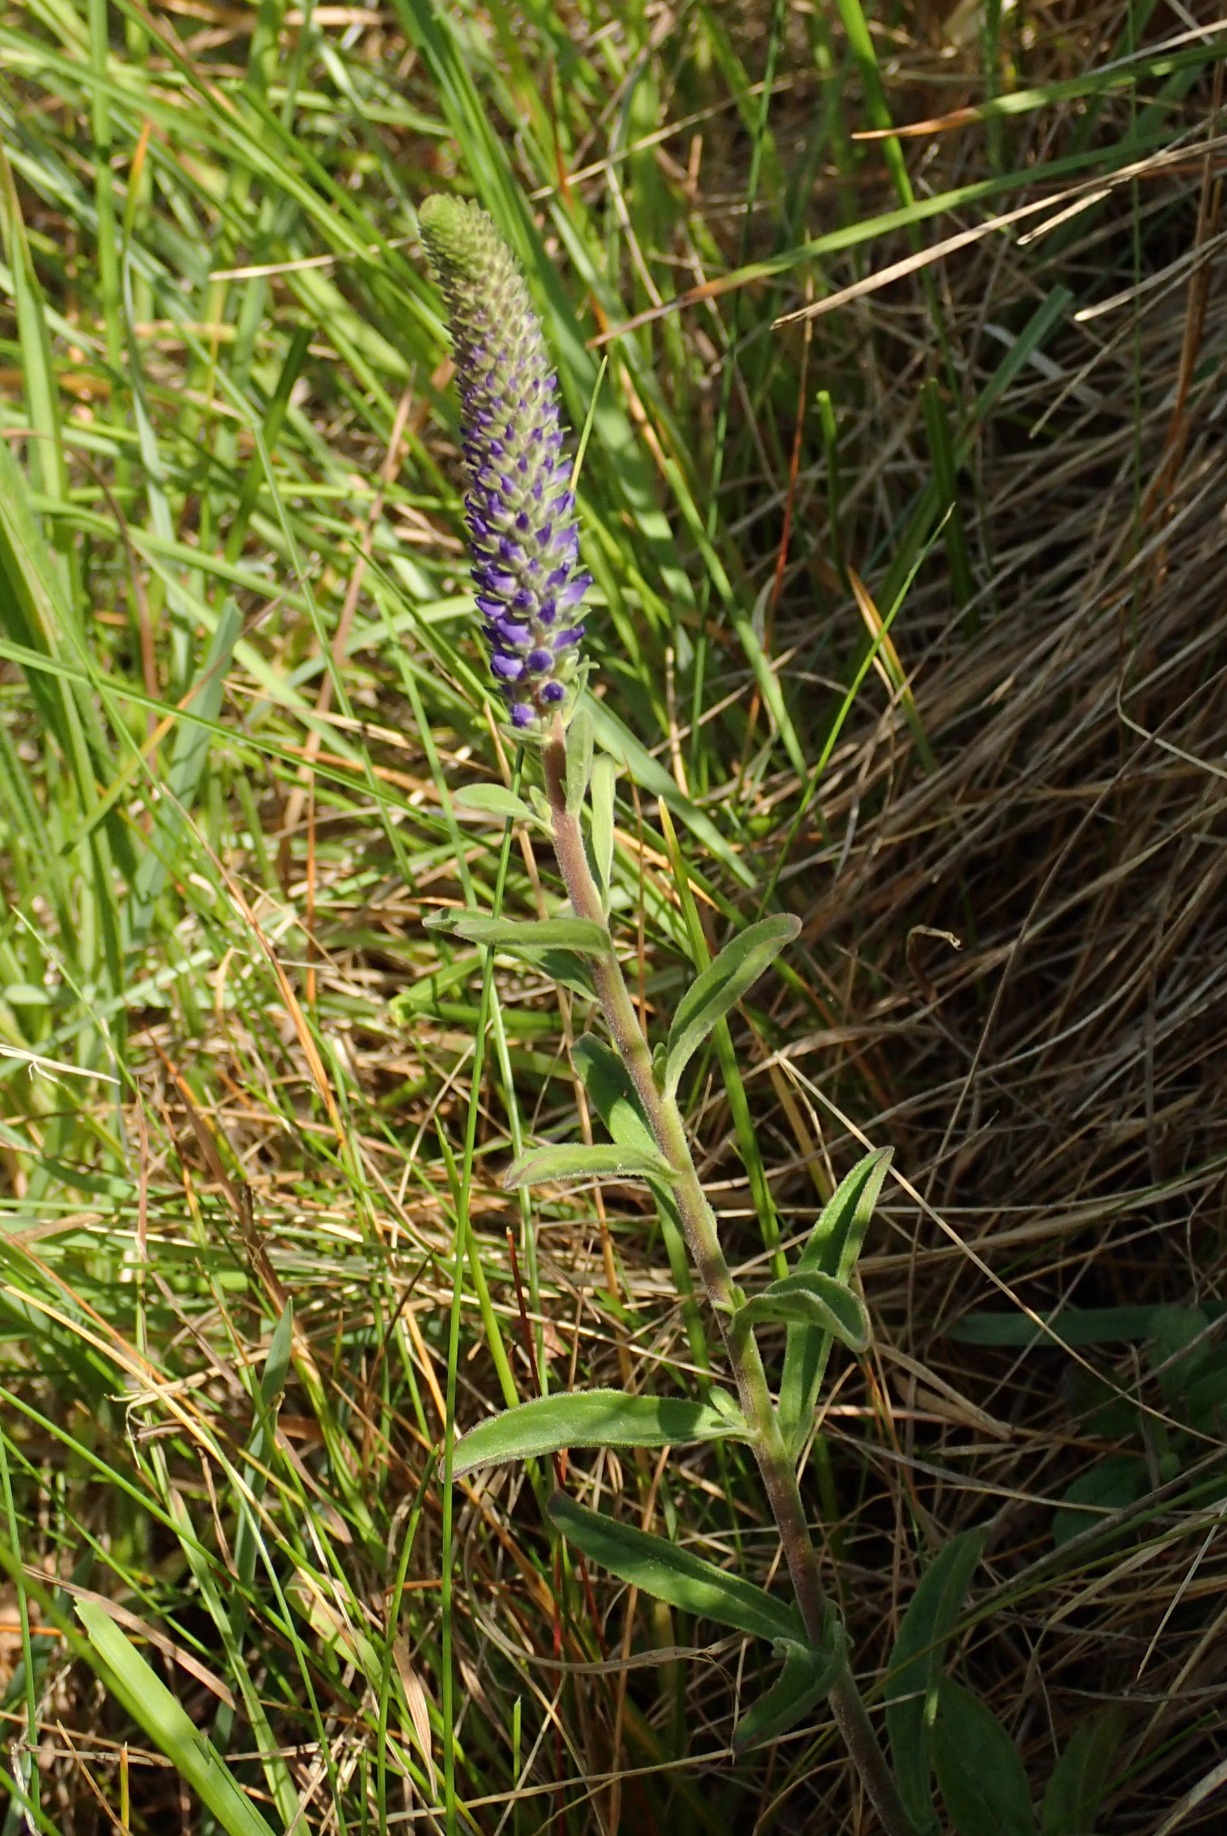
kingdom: Plantae
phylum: Tracheophyta
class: Magnoliopsida
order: Lamiales
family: Plantaginaceae
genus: Veronica
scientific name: Veronica spicata
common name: Aks-ærenpris
